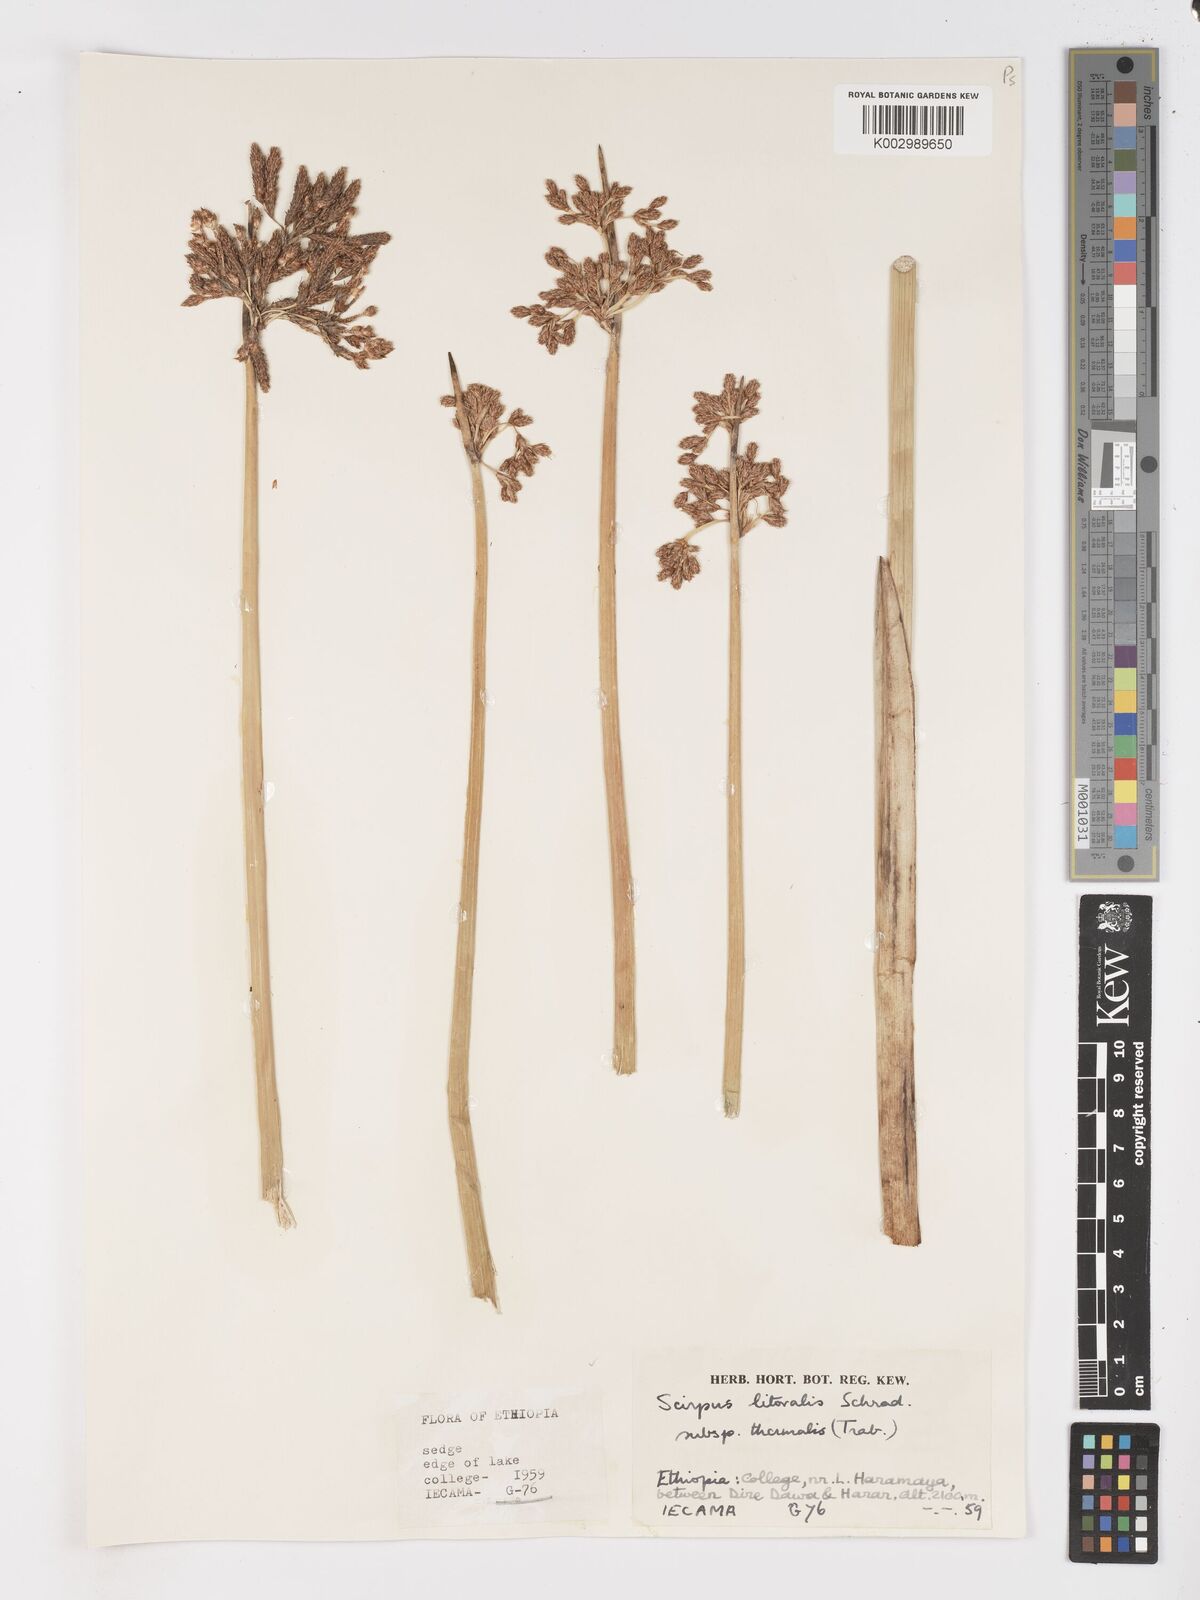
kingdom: Plantae
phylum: Tracheophyta
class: Liliopsida
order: Poales
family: Cyperaceae
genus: Schoenoplectus
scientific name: Schoenoplectus litoralis
